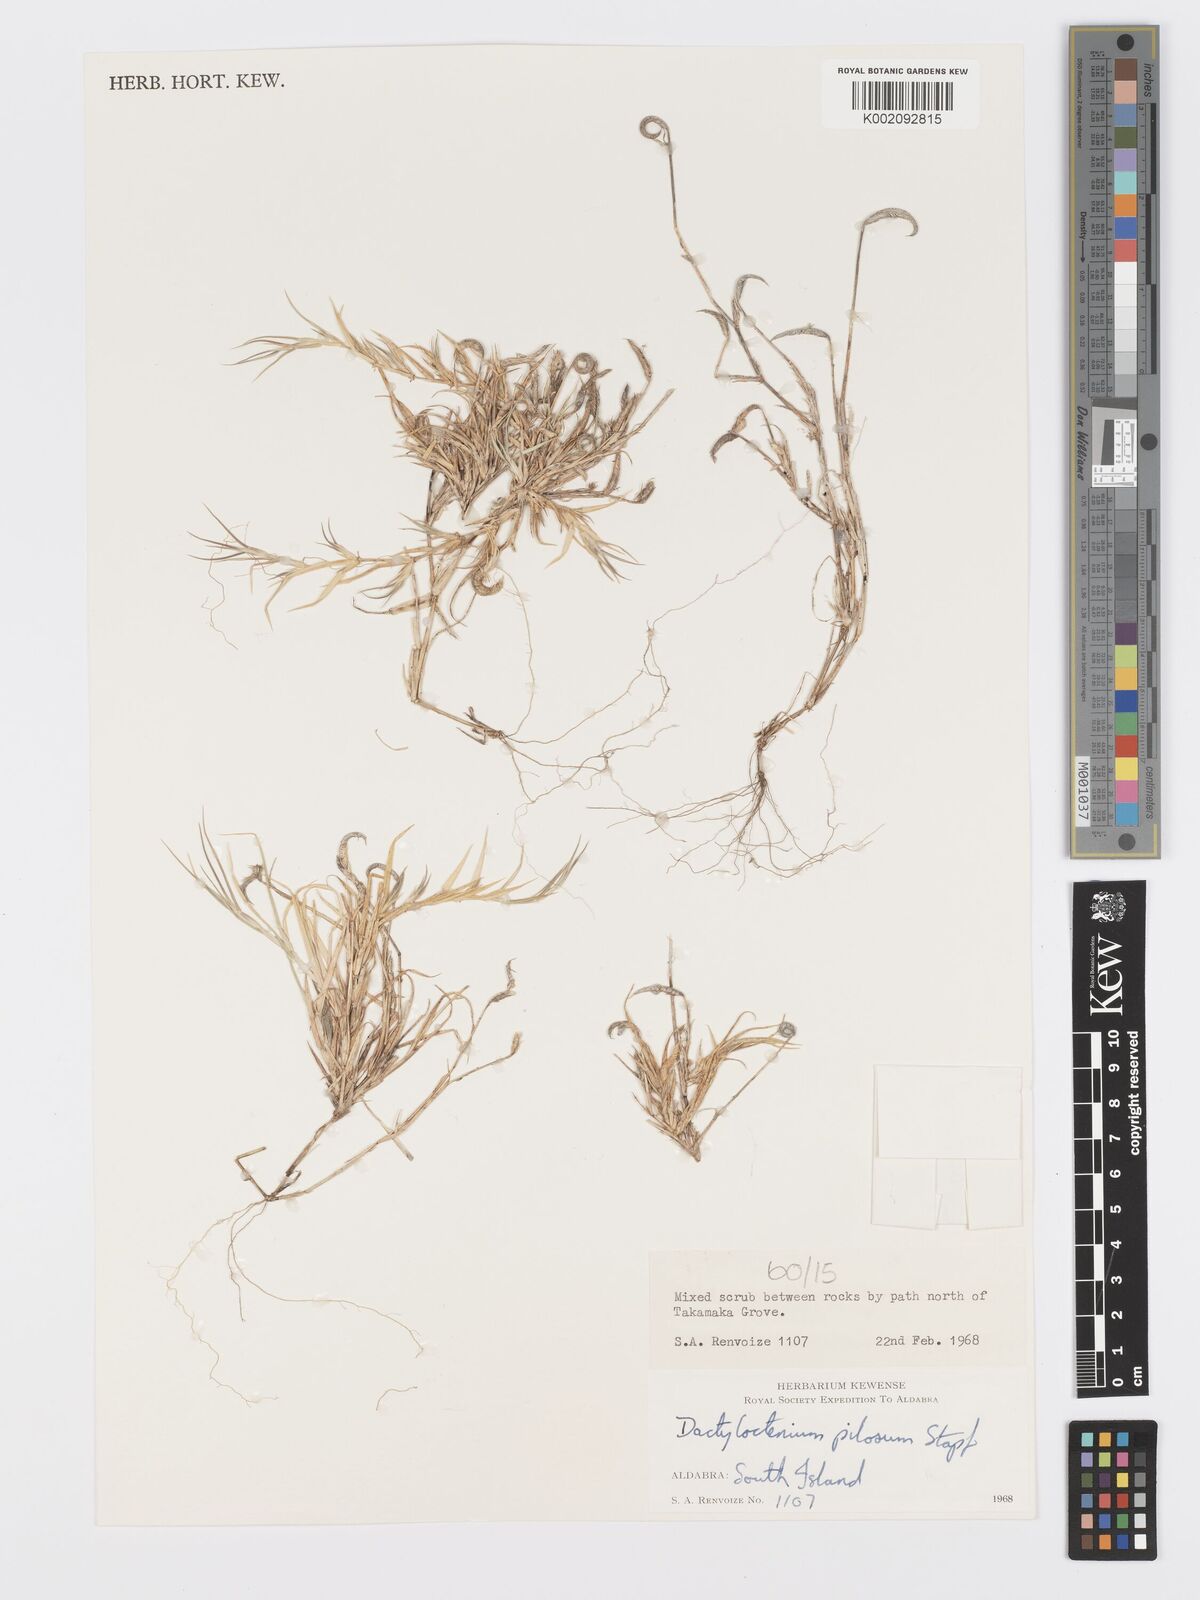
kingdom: Plantae
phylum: Tracheophyta
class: Liliopsida
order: Poales
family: Poaceae
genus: Dactyloctenium
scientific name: Dactyloctenium pilosum
